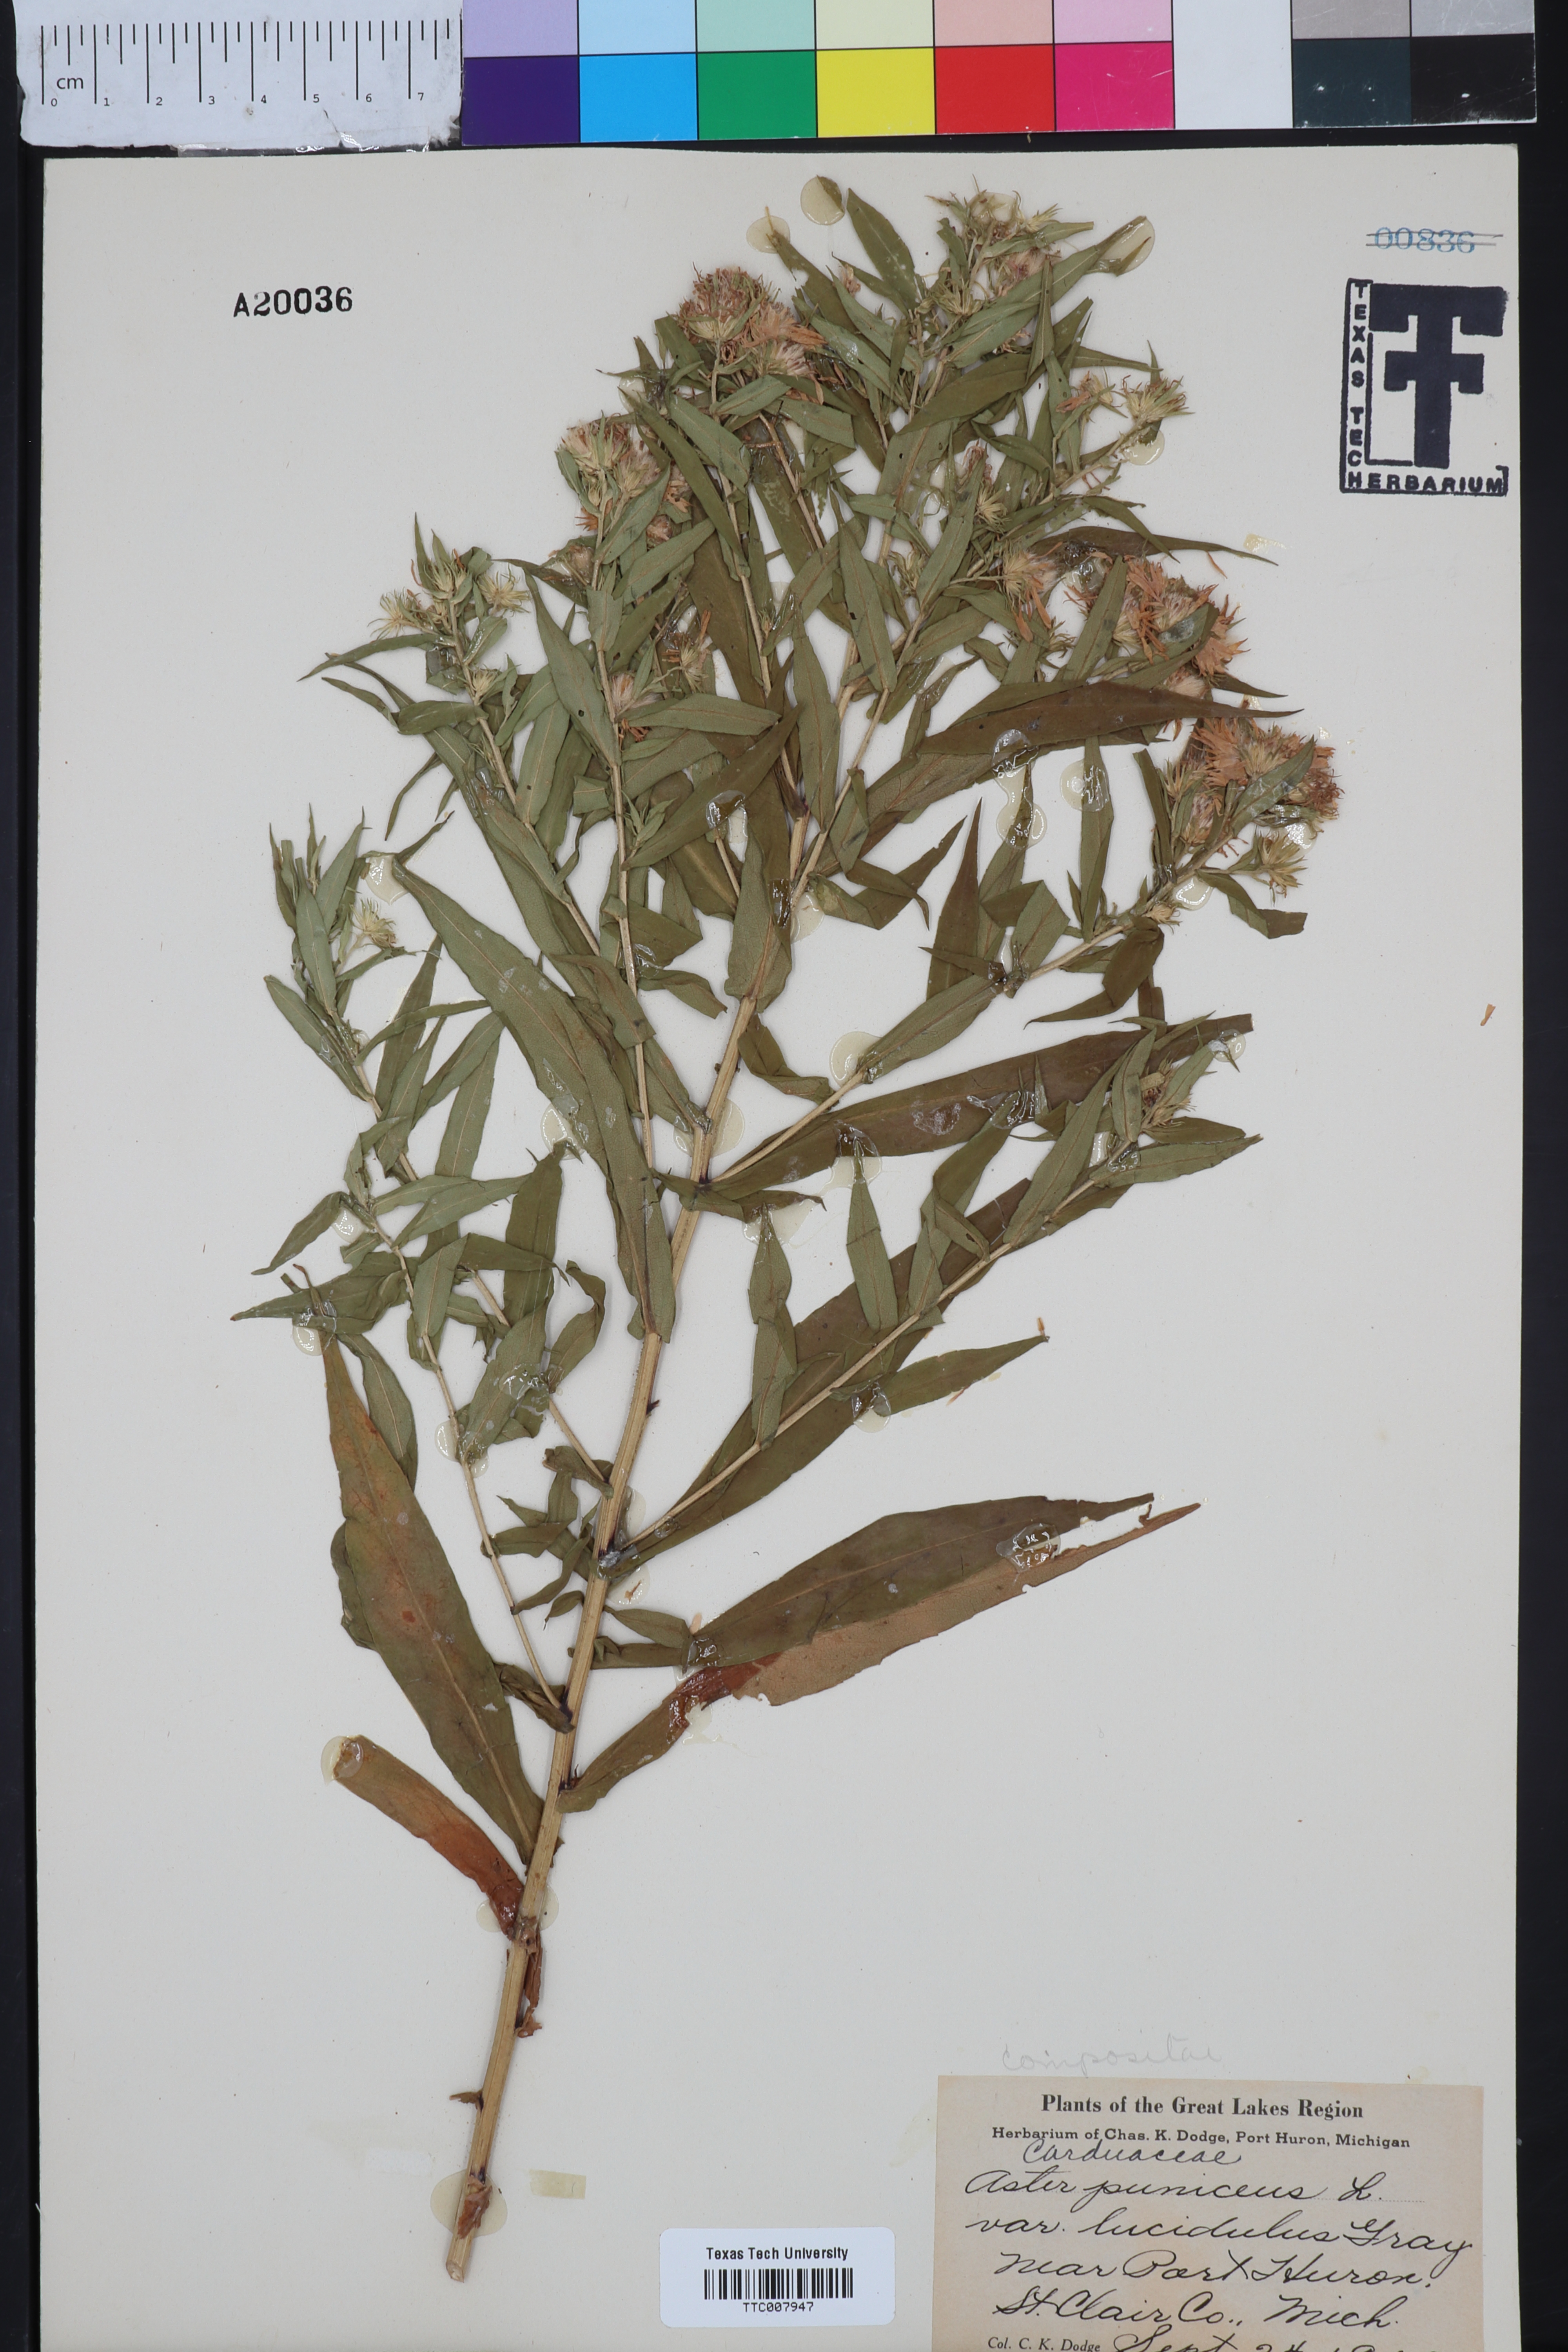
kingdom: Plantae
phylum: Tracheophyta
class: Magnoliopsida
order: Asterales
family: Asteraceae
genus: Symphyotrichum
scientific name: Symphyotrichum firmum
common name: Shining aster
